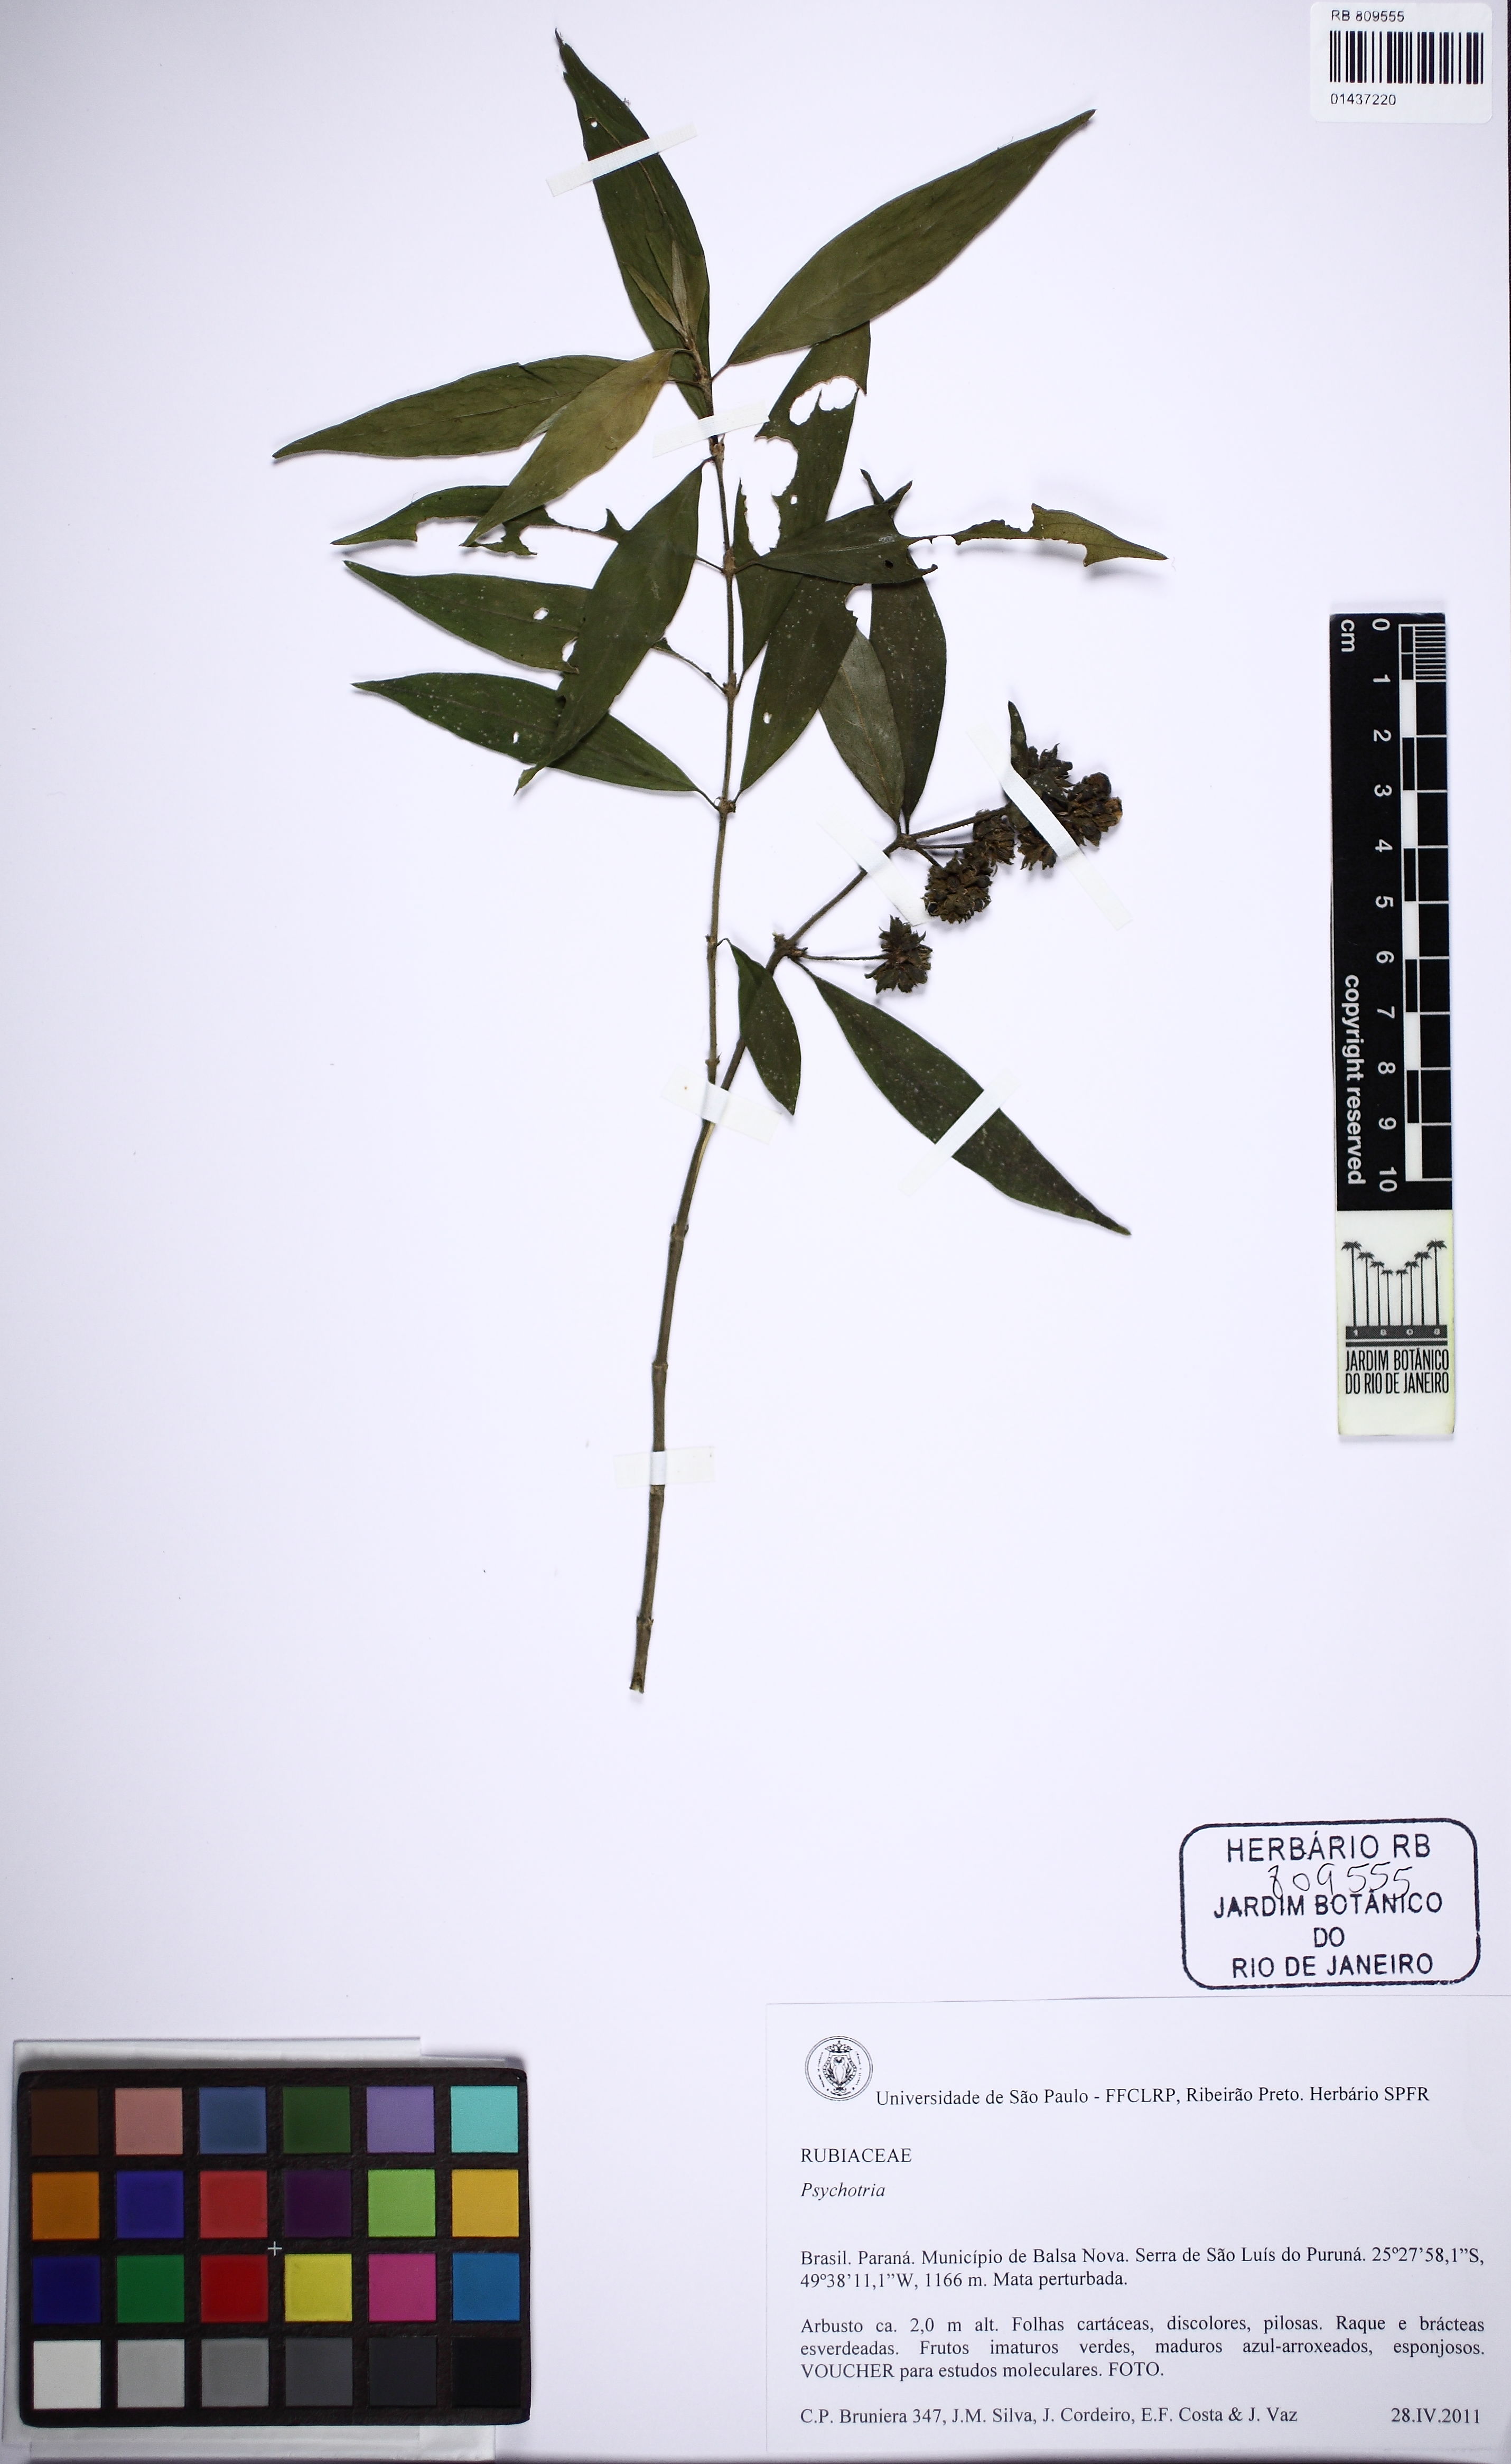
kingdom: Plantae
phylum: Tracheophyta
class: Magnoliopsida
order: Gentianales
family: Rubiaceae
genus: Psychotria
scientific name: Psychotria
